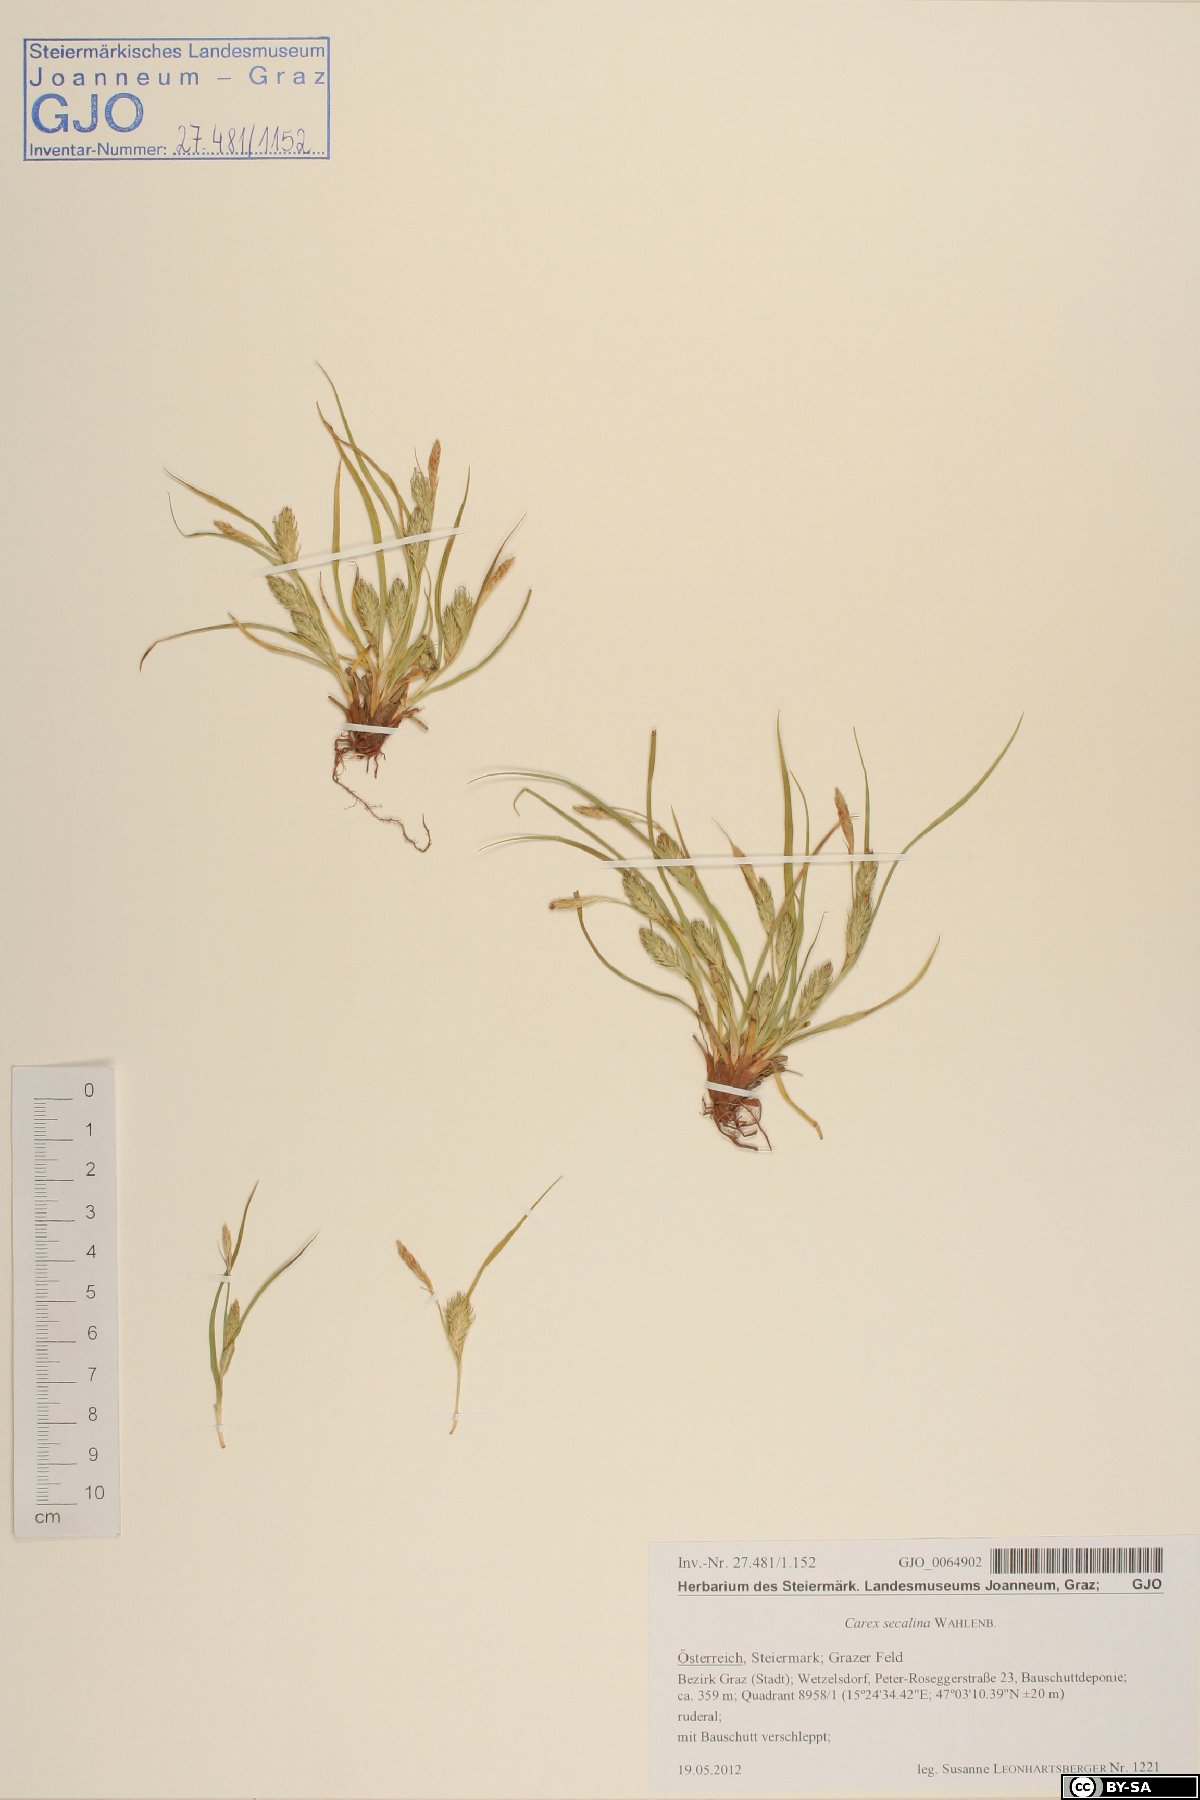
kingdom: Plantae
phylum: Tracheophyta
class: Liliopsida
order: Poales
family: Cyperaceae
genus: Carex
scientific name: Carex secalina
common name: Rye sedge
